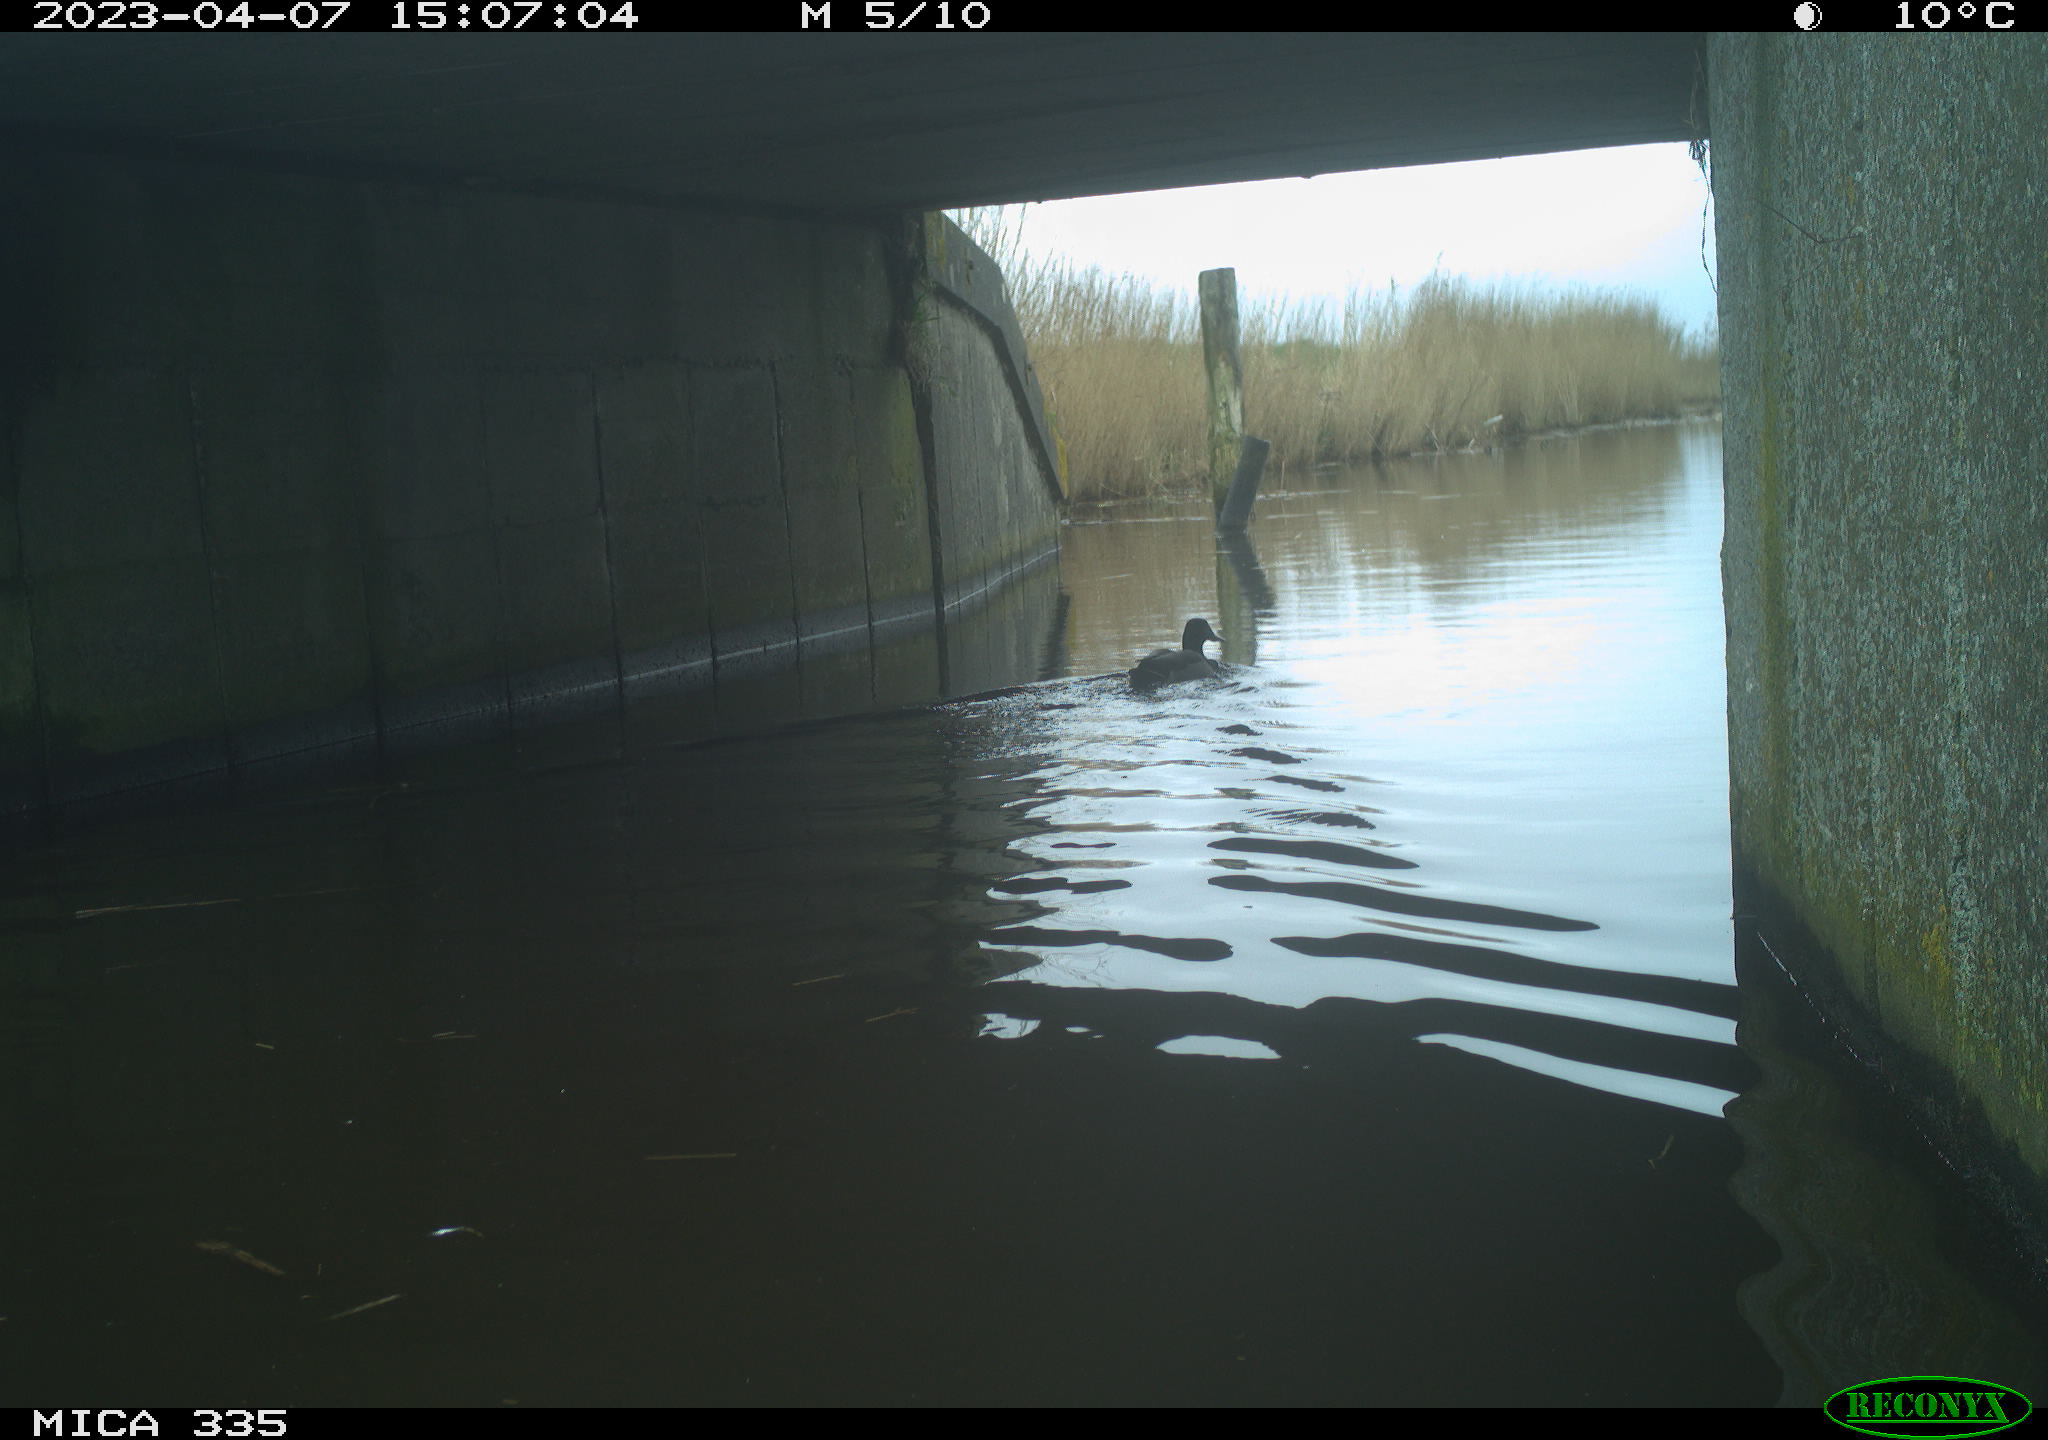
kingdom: Animalia
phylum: Chordata
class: Aves
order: Anseriformes
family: Anatidae
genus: Anas
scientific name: Anas
